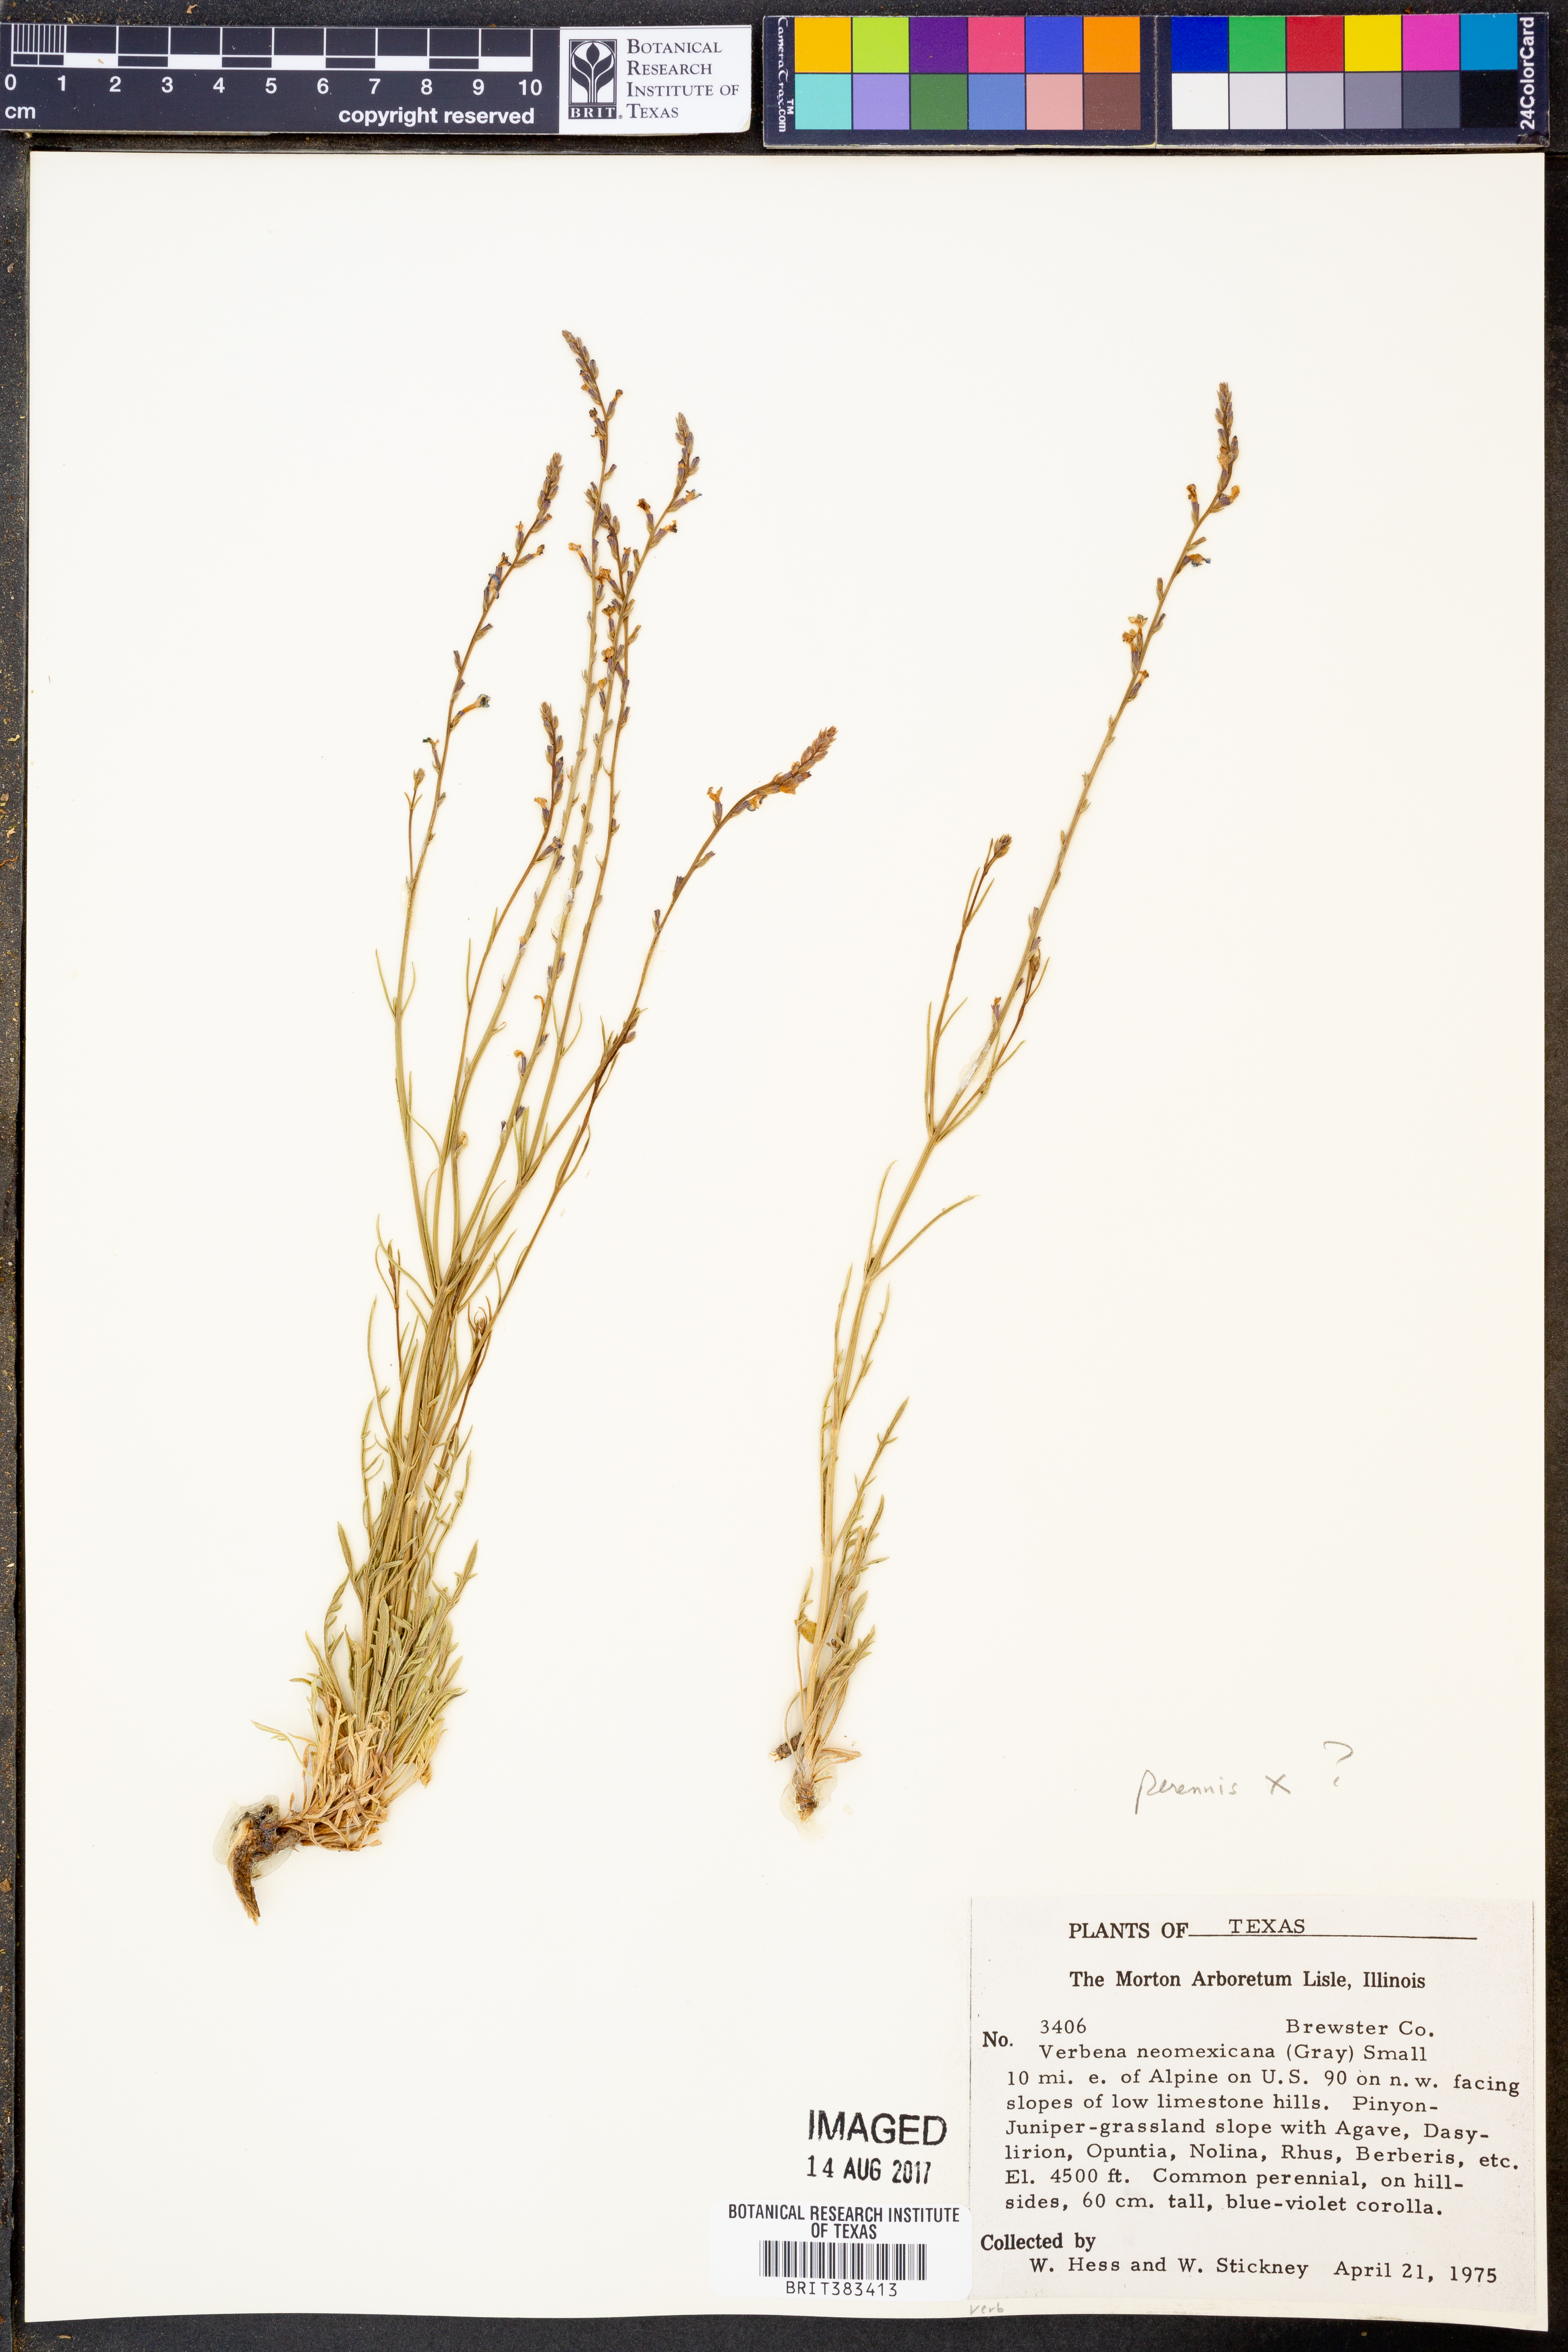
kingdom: Plantae
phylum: Tracheophyta
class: Magnoliopsida
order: Lamiales
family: Verbenaceae
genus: Verbena
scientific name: Verbena neomexicana
